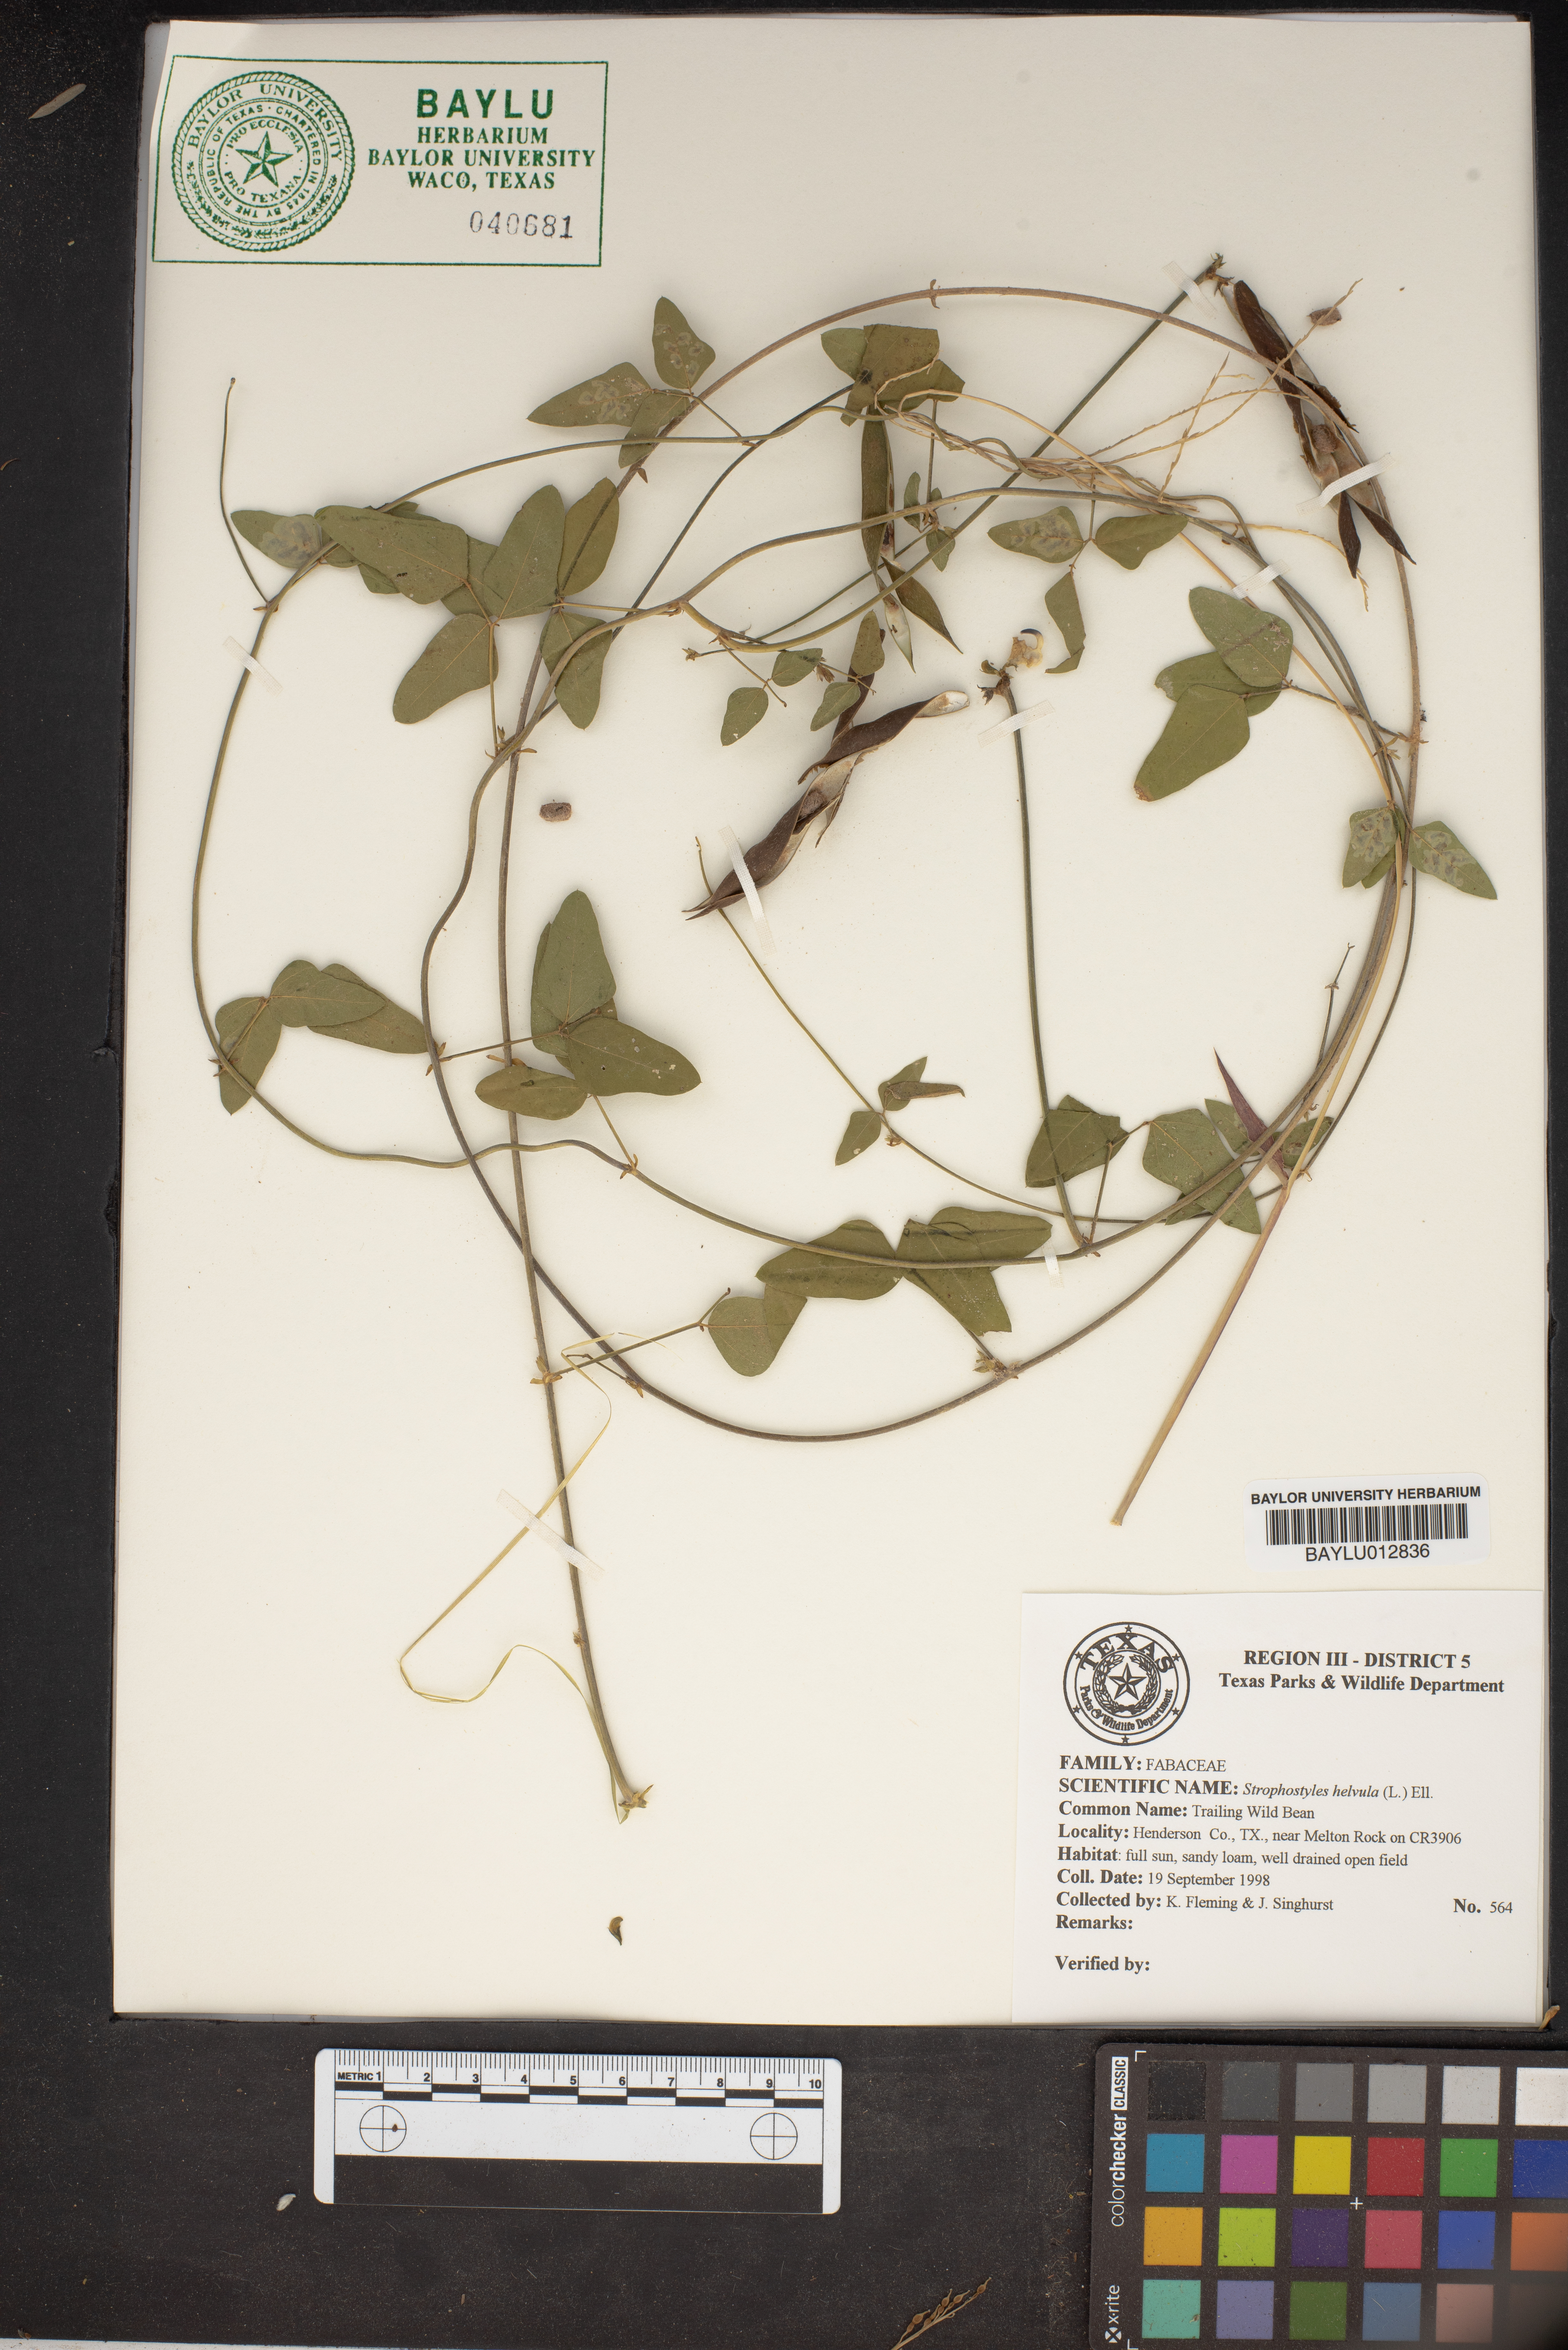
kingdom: Plantae
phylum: Tracheophyta
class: Magnoliopsida
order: Fabales
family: Fabaceae
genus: Strophostyles
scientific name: Strophostyles helvula
